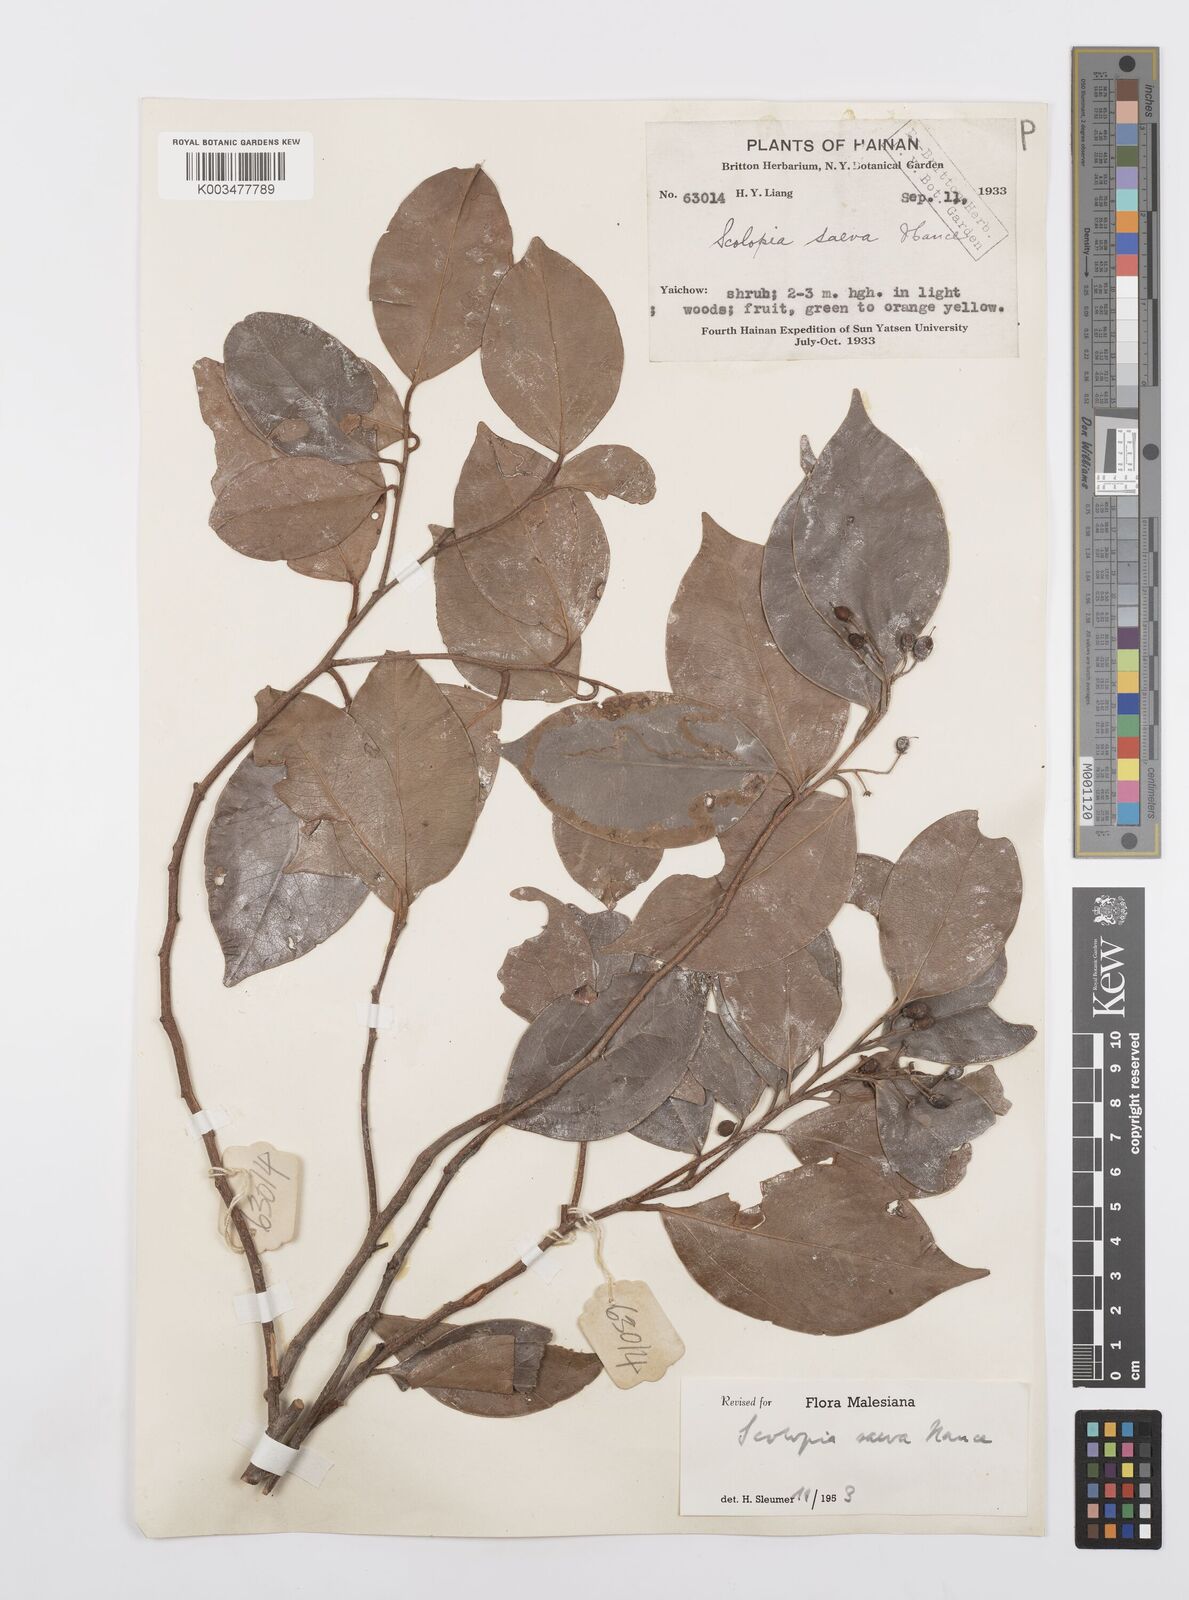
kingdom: Plantae
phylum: Tracheophyta
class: Magnoliopsida
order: Malpighiales
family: Salicaceae
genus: Scolopia
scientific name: Scolopia saeva
